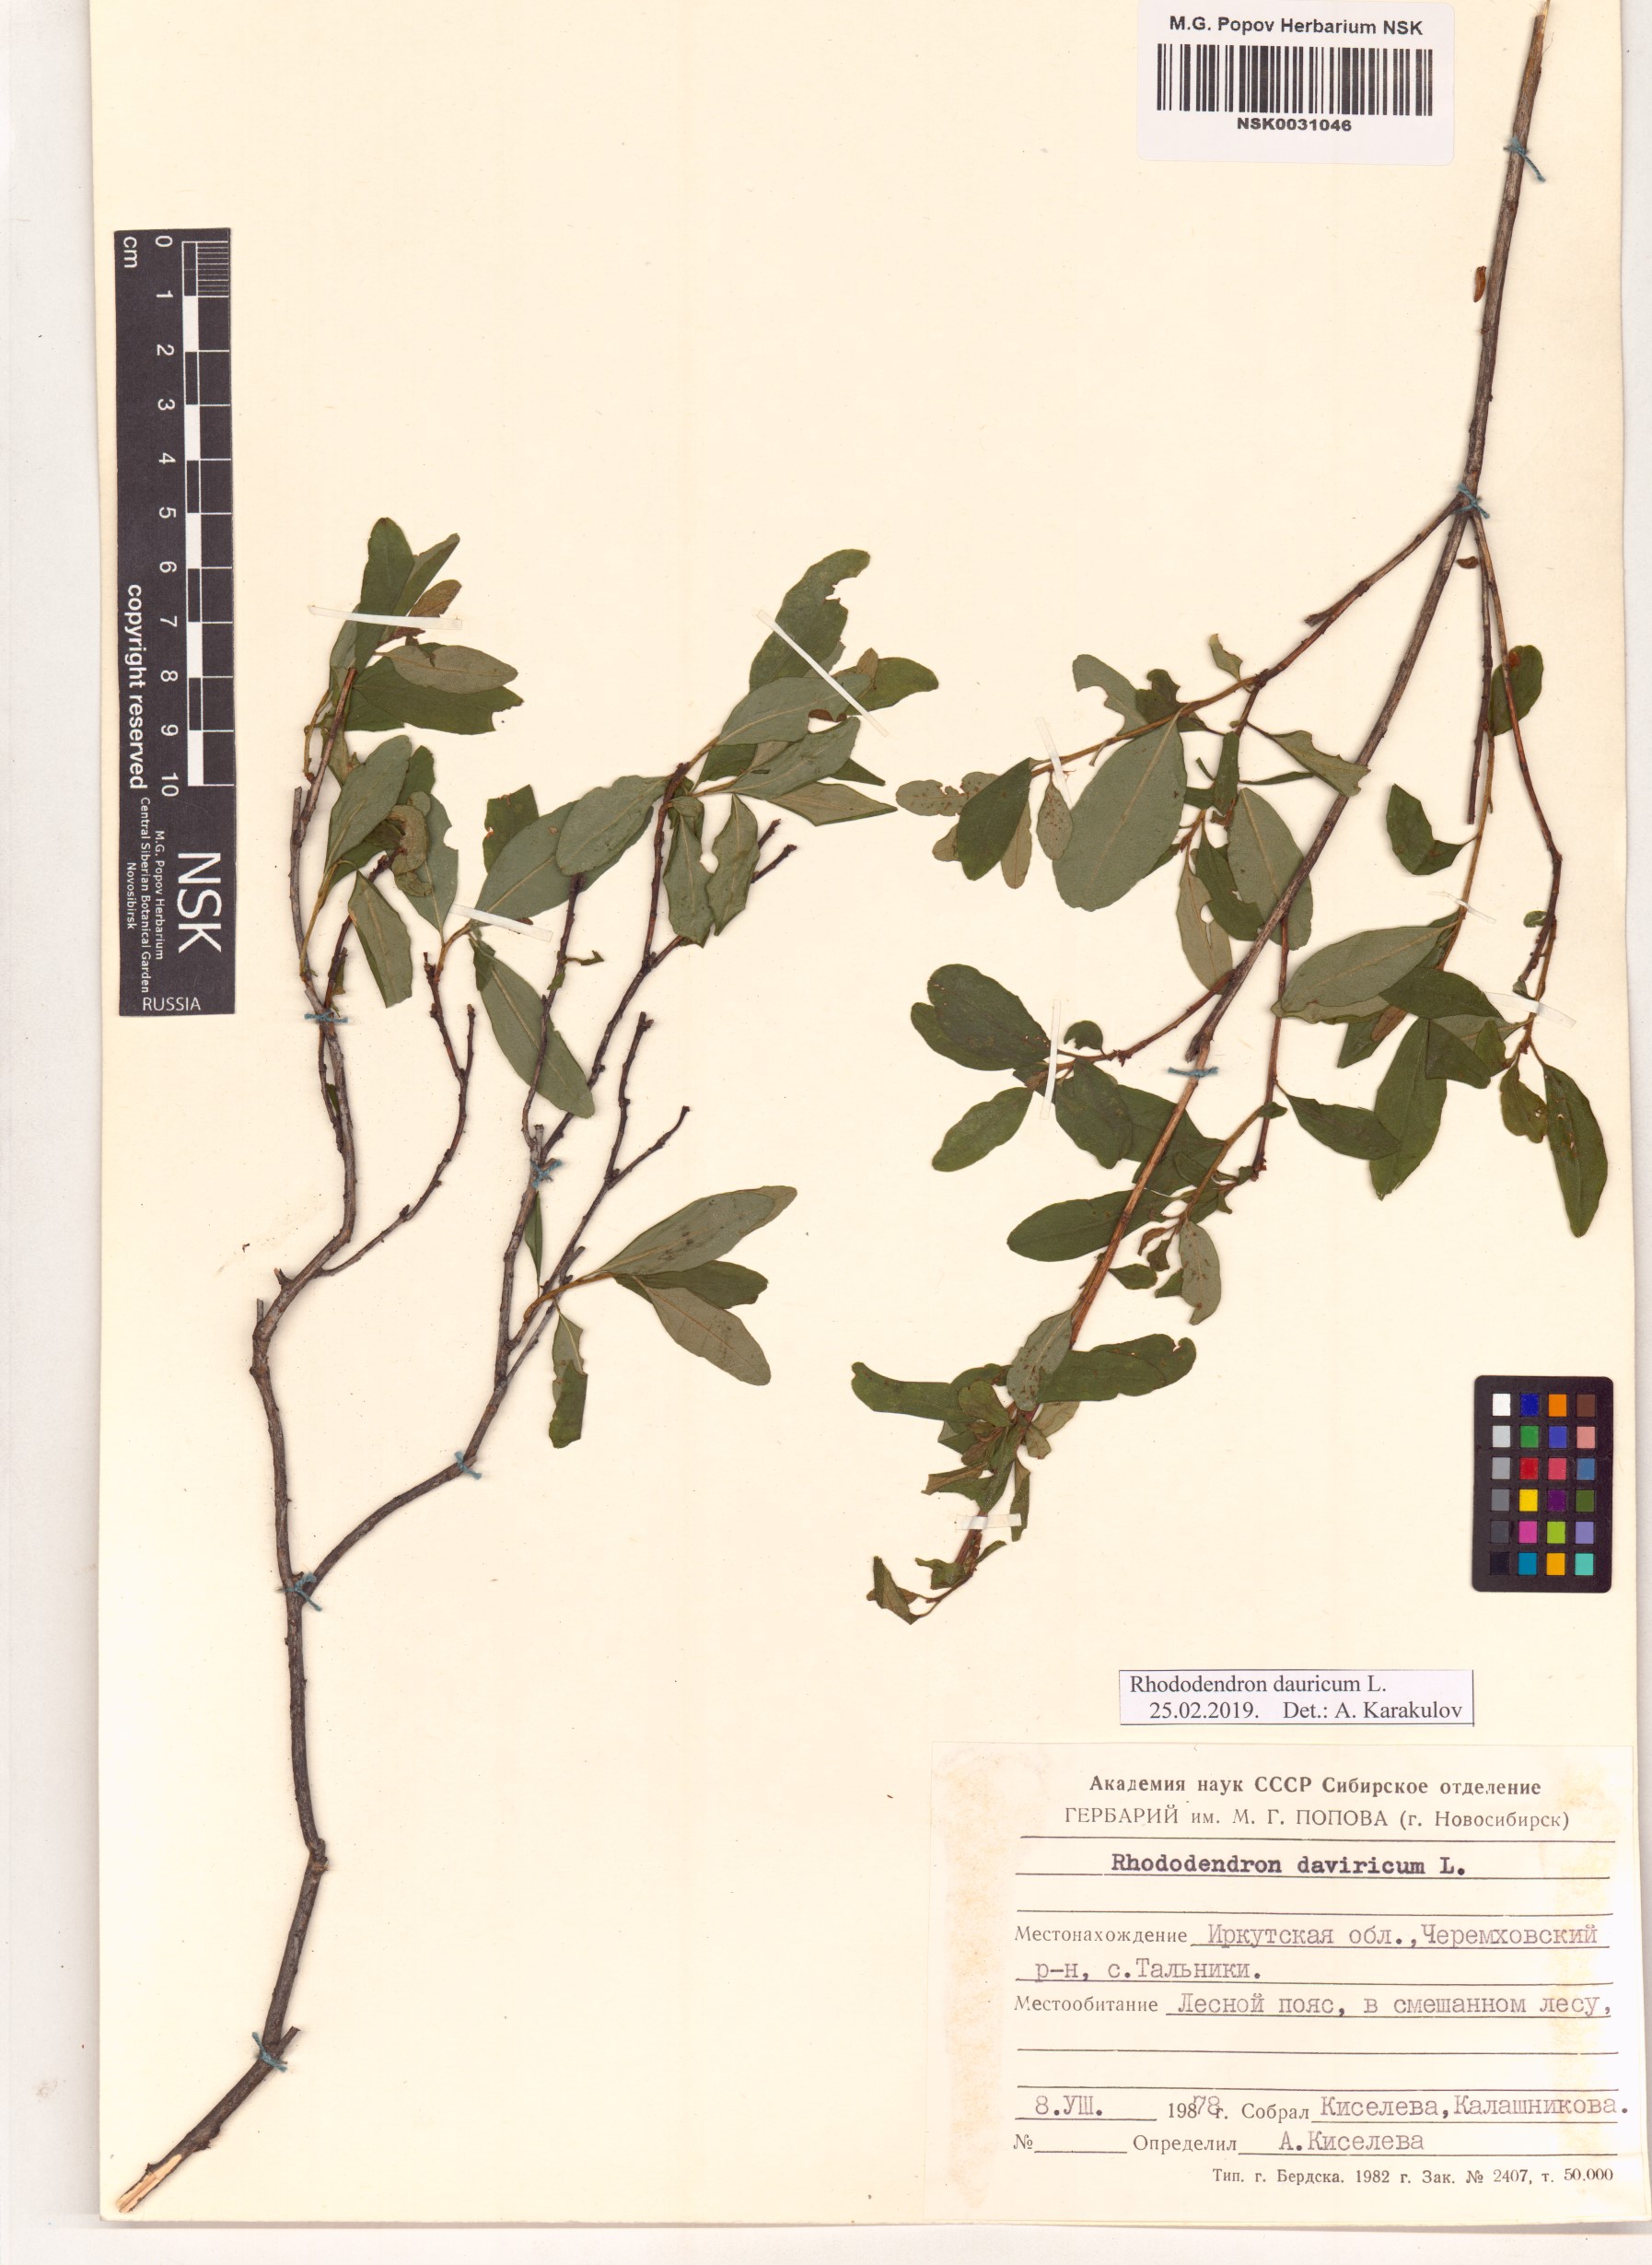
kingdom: Plantae
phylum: Tracheophyta
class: Magnoliopsida
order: Ericales
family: Ericaceae
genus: Rhododendron
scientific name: Rhododendron dauricum
